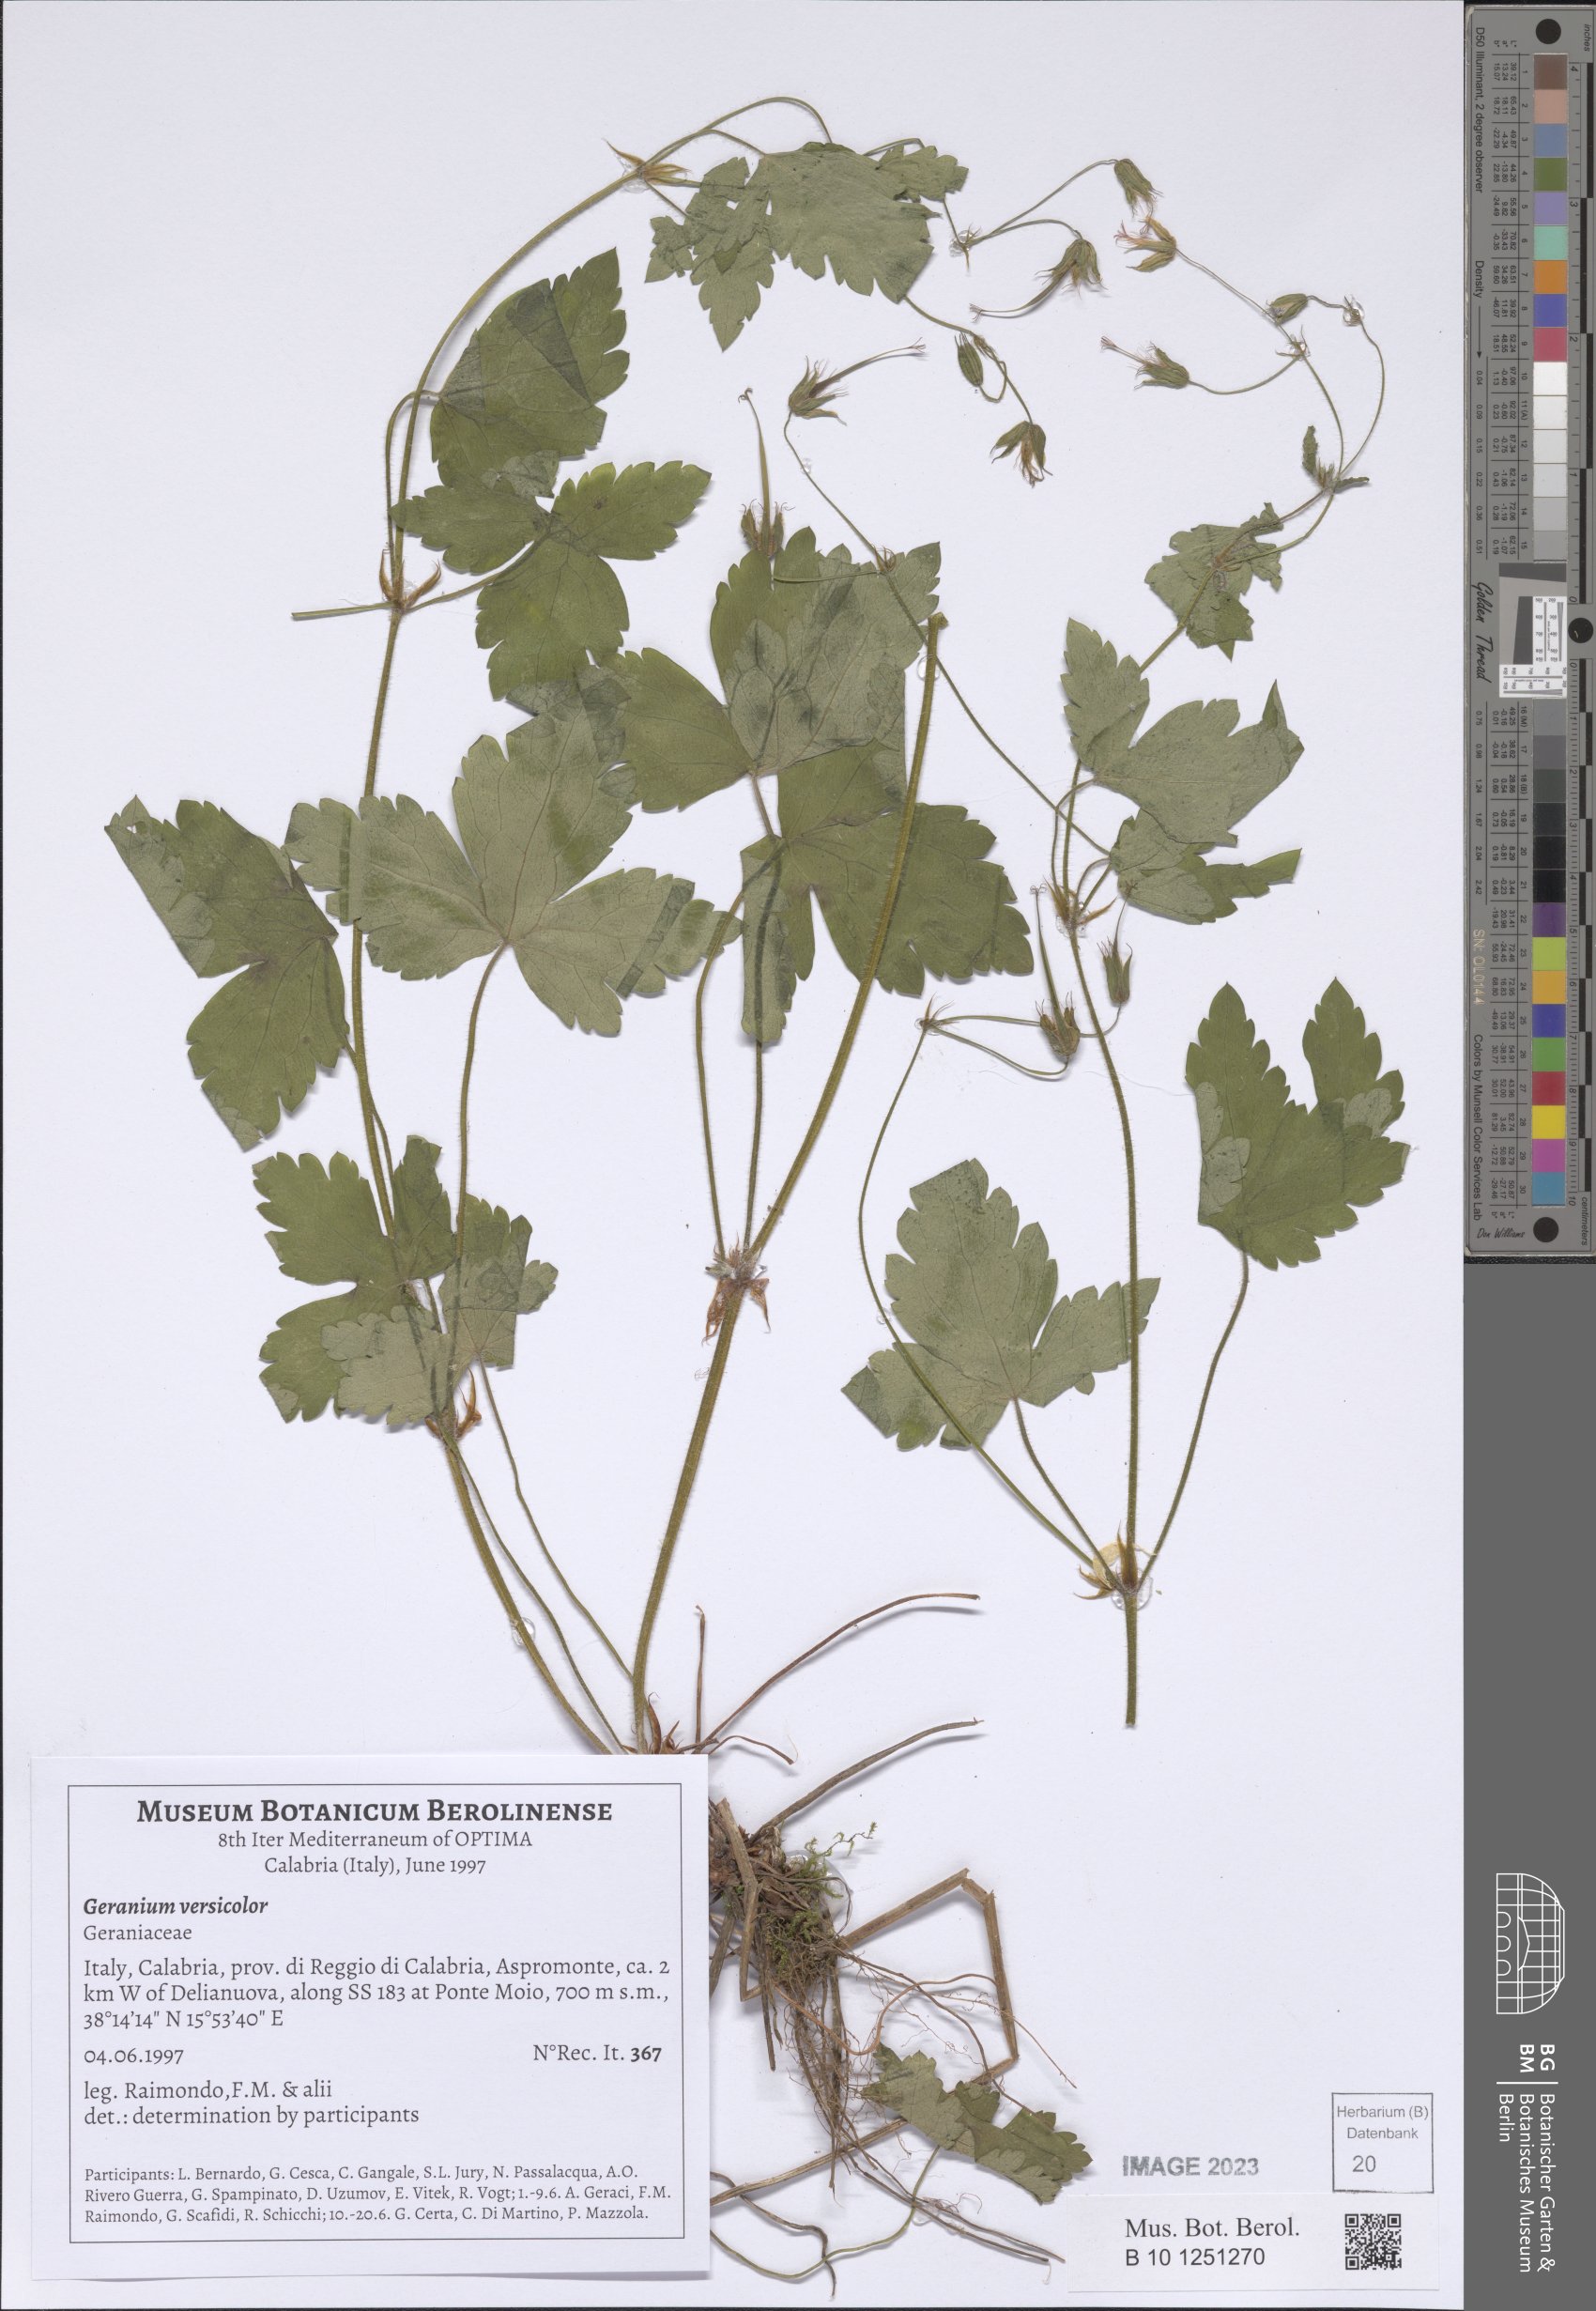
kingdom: Plantae
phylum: Tracheophyta
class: Magnoliopsida
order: Geraniales
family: Geraniaceae
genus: Geranium
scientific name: Geranium versicolor
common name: Pencilled crane's-bill
